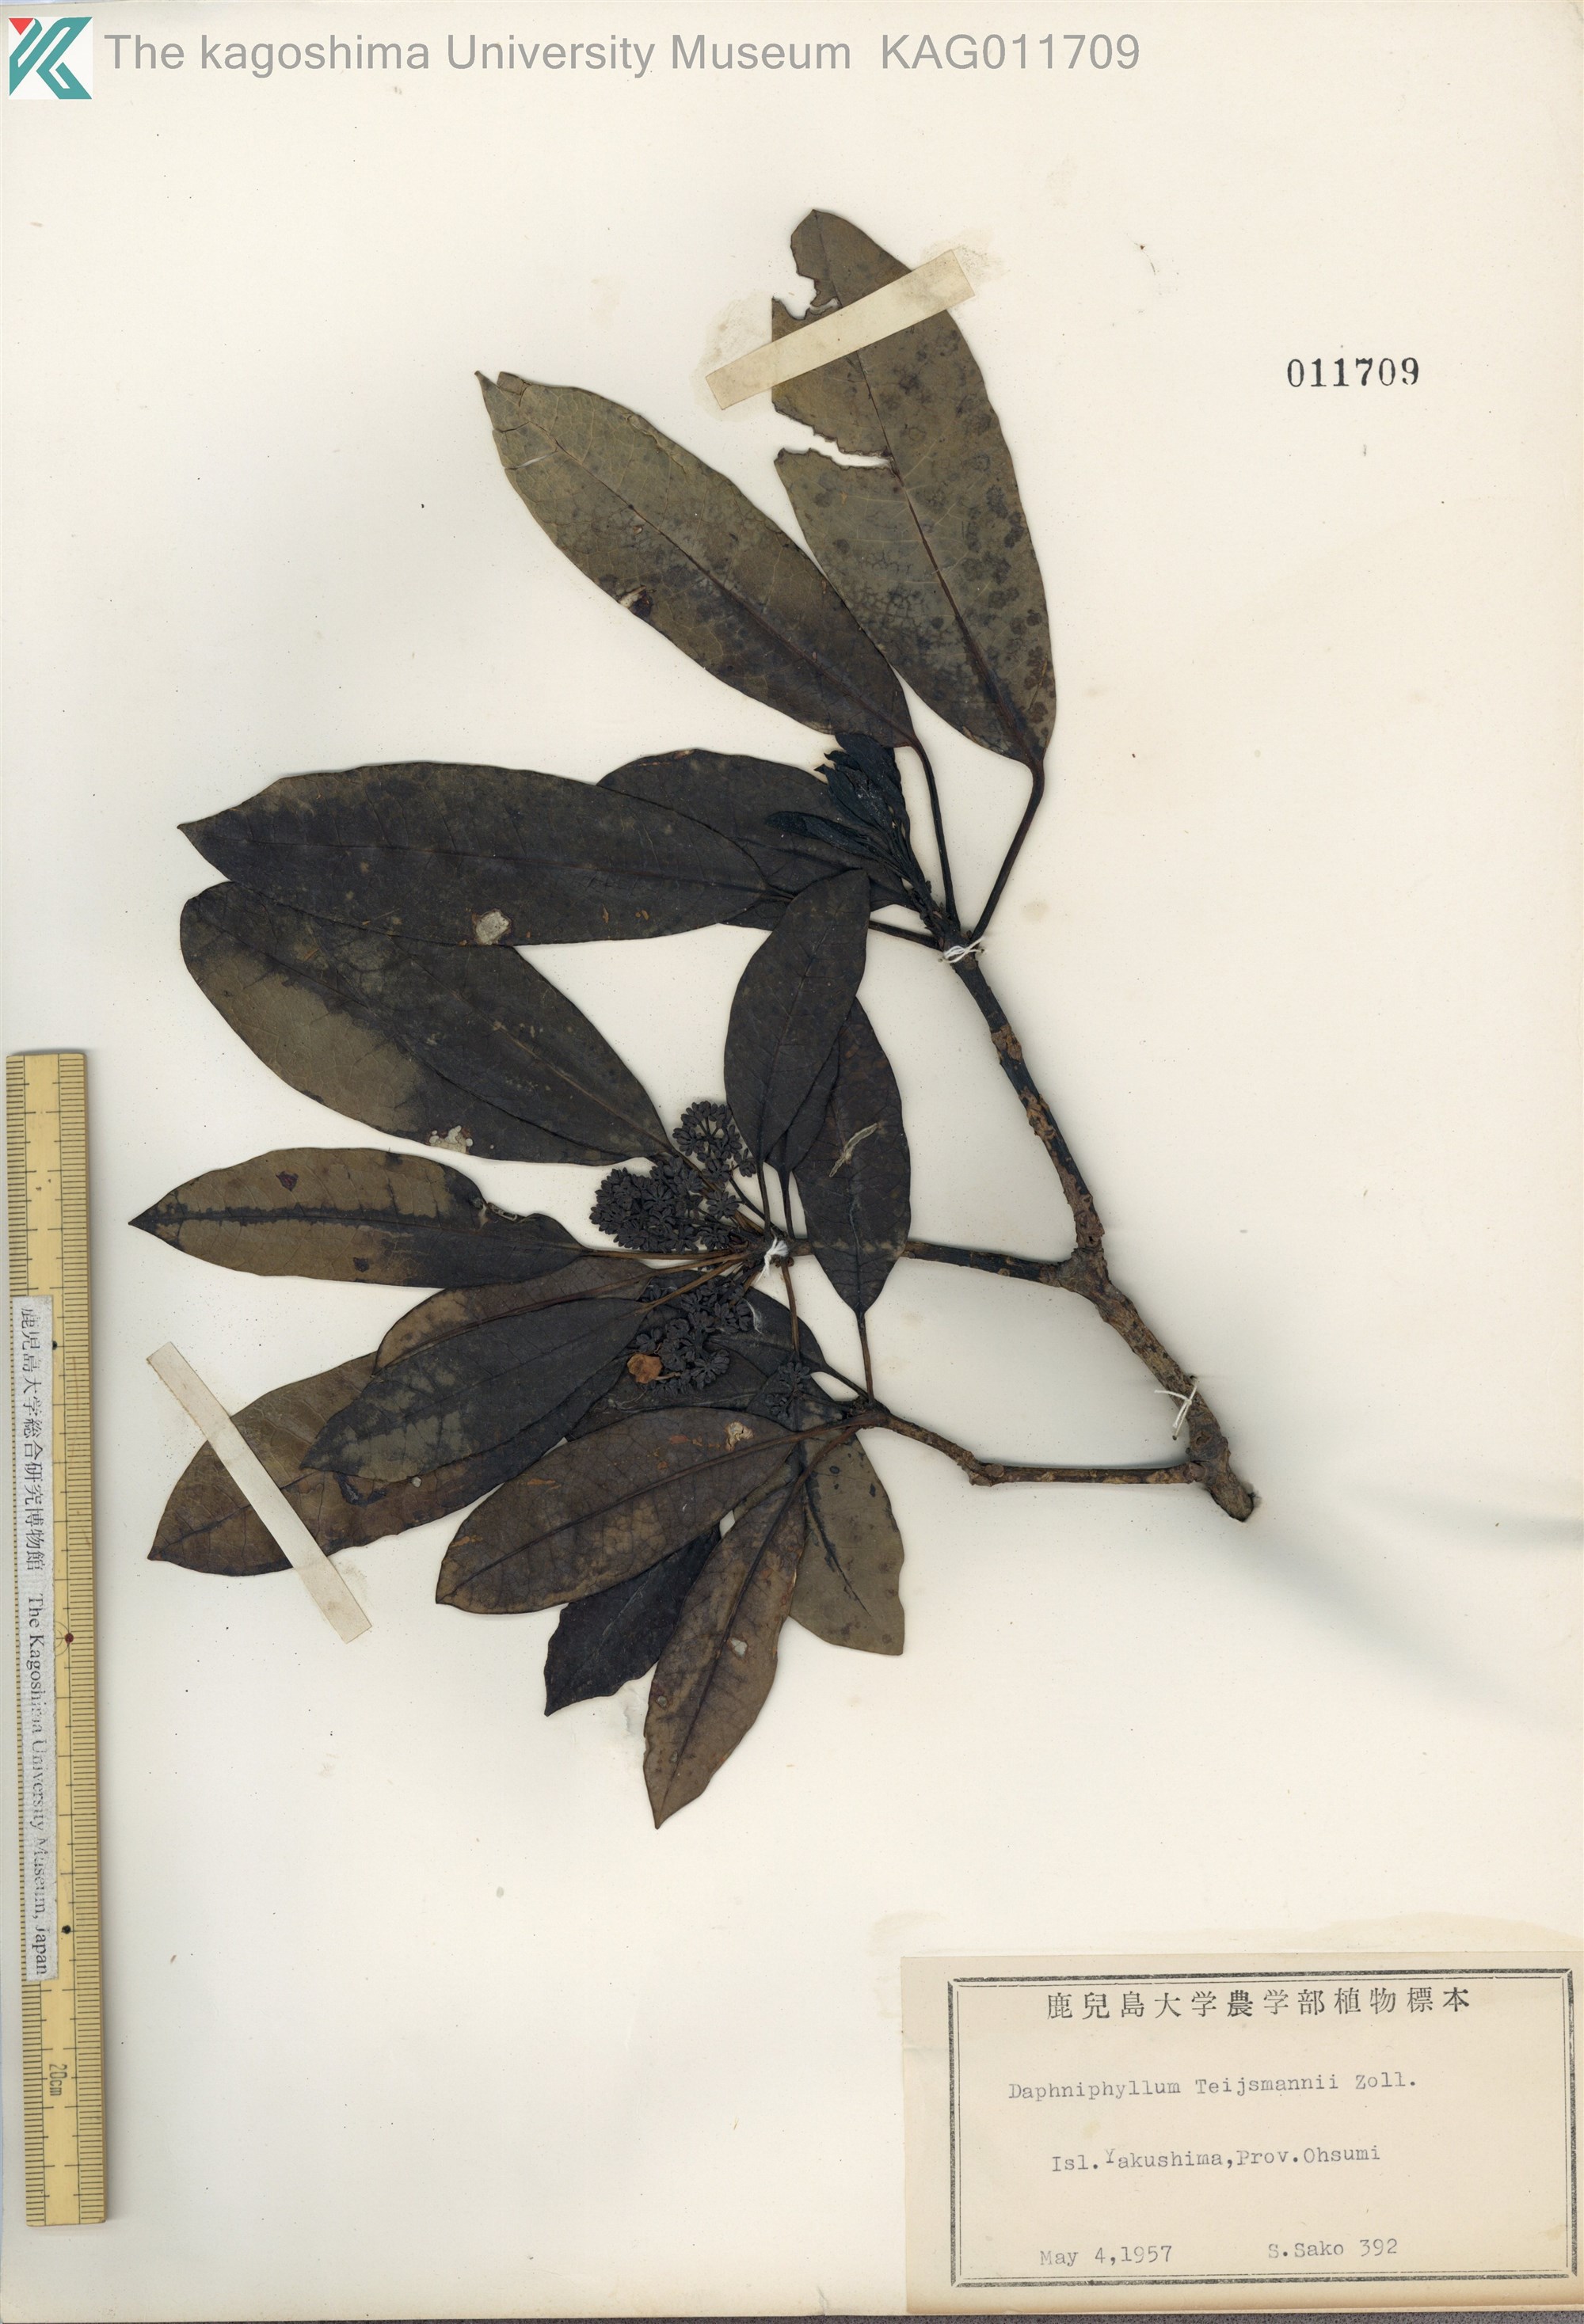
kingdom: Plantae
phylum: Tracheophyta
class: Magnoliopsida
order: Saxifragales
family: Daphniphyllaceae
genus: Daphniphyllum
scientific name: Daphniphyllum teijsmannii
